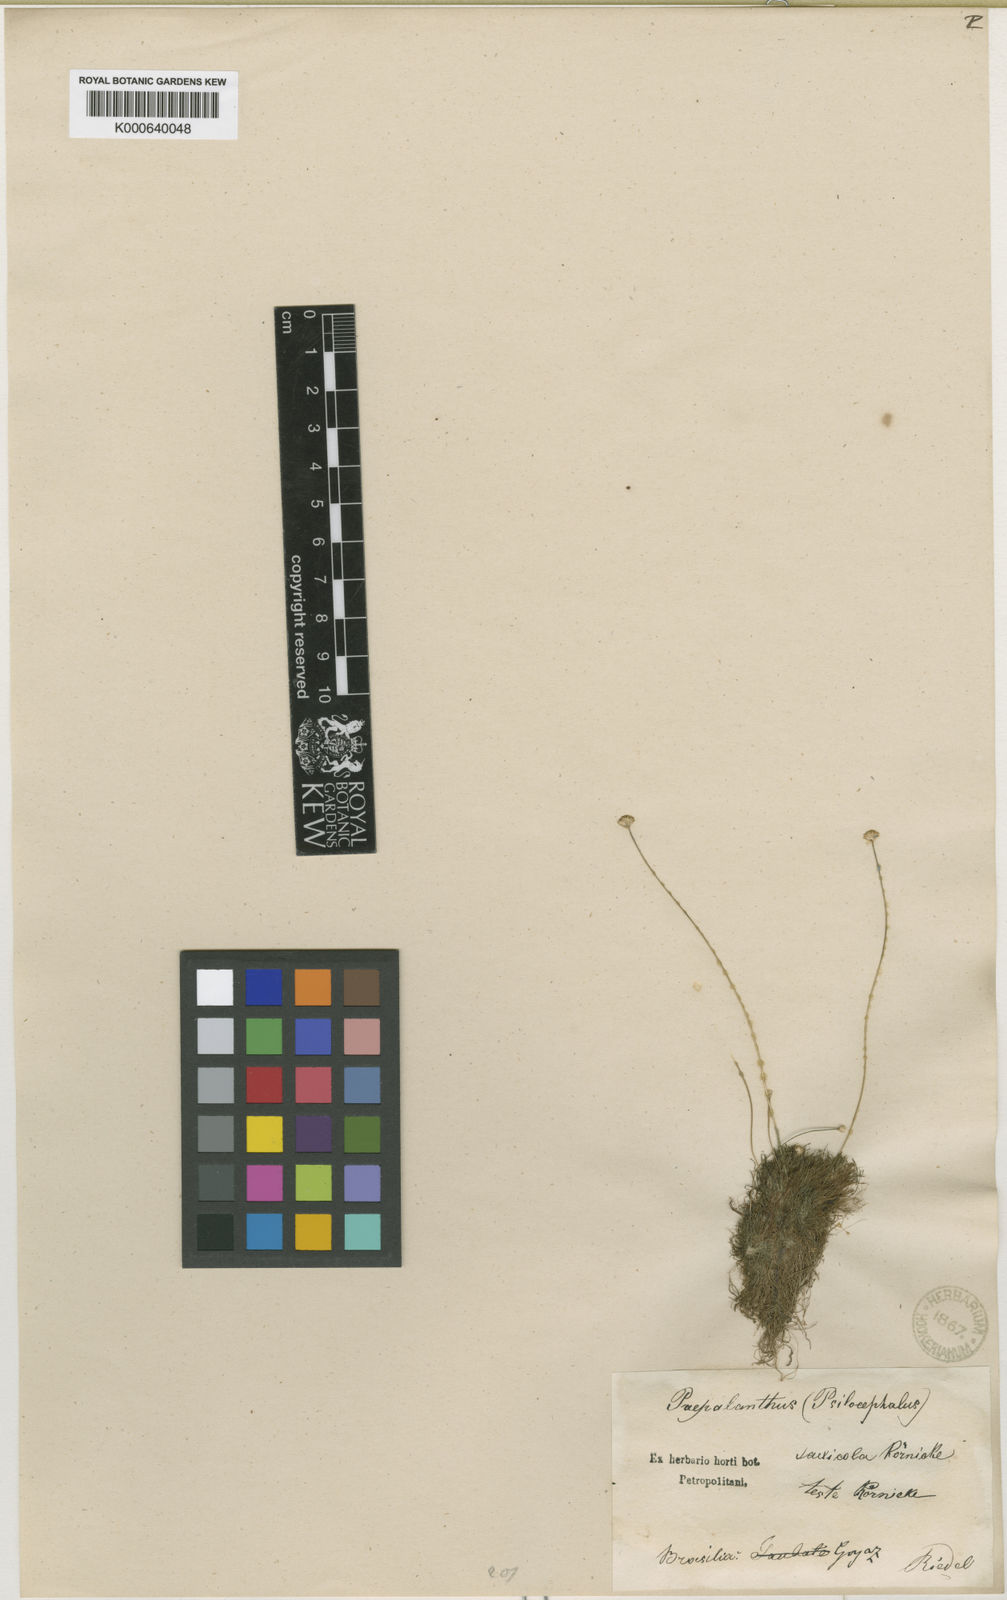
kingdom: Plantae
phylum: Tracheophyta
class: Liliopsida
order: Poales
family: Eriocaulaceae
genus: Paepalanthus
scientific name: Paepalanthus
